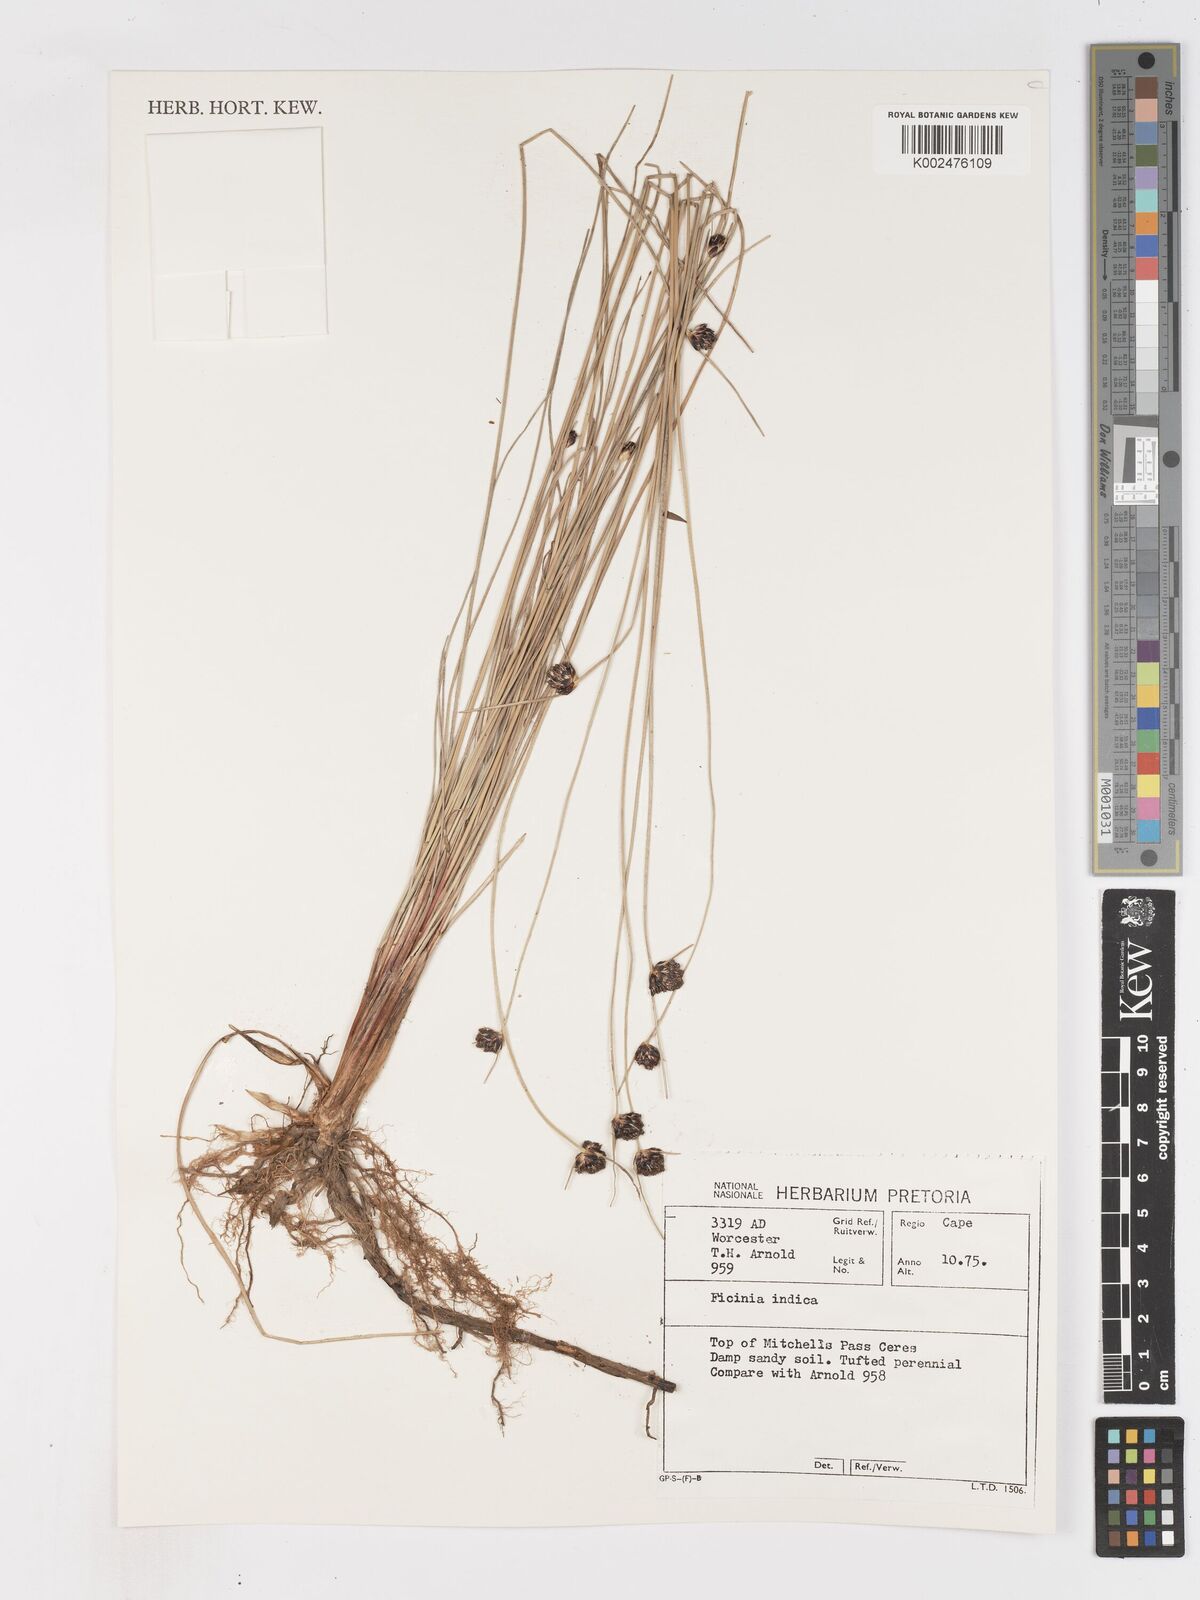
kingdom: Plantae
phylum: Tracheophyta
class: Liliopsida
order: Poales
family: Cyperaceae
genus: Ficinia
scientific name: Ficinia indica
